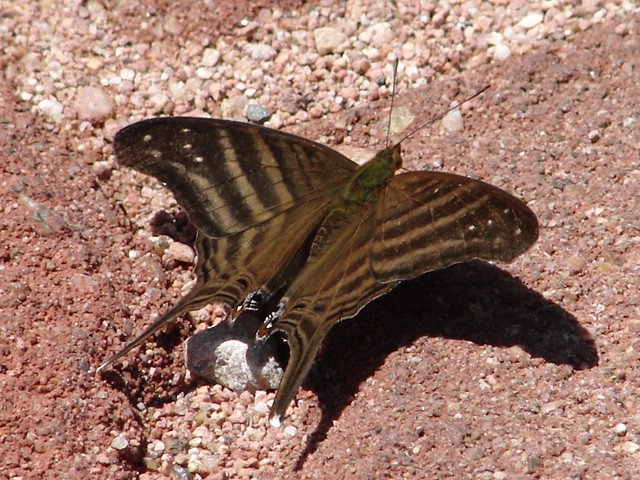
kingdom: Animalia
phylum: Arthropoda
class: Insecta
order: Lepidoptera
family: Nymphalidae
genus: Marpesia
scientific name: Marpesia chiron
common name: Many-banded Daggerwing
